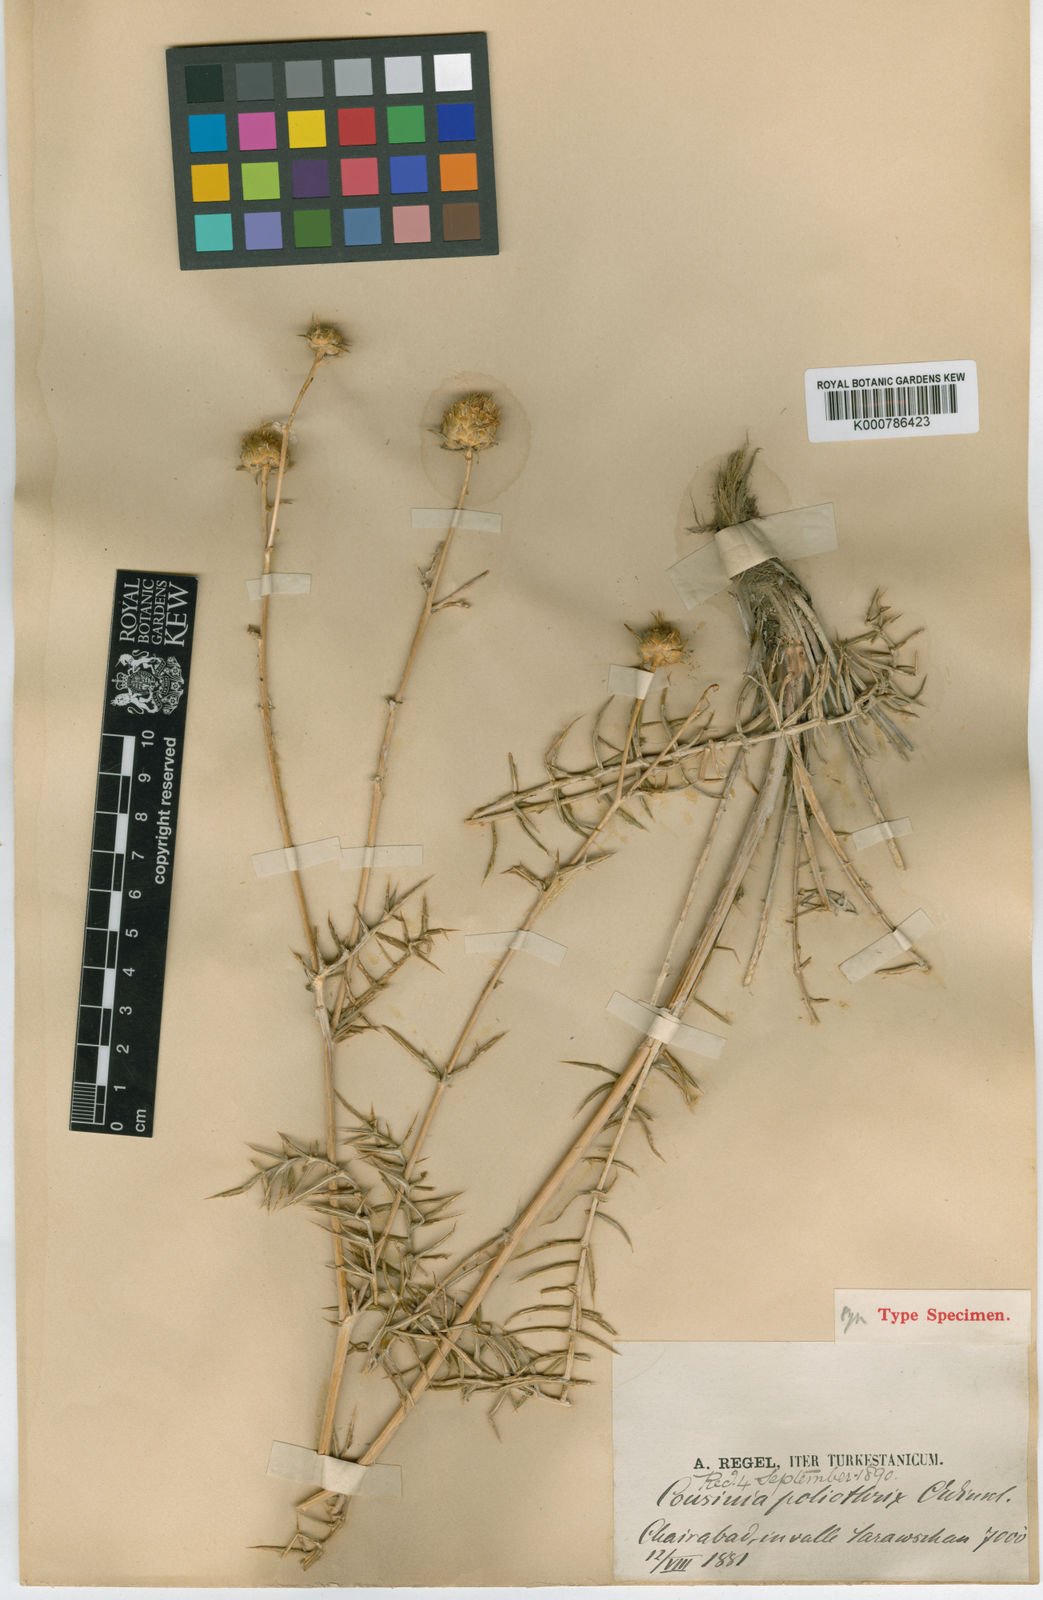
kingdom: Plantae
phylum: Tracheophyta
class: Magnoliopsida
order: Asterales
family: Asteraceae
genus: Cousinia
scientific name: Cousinia laetevirens
